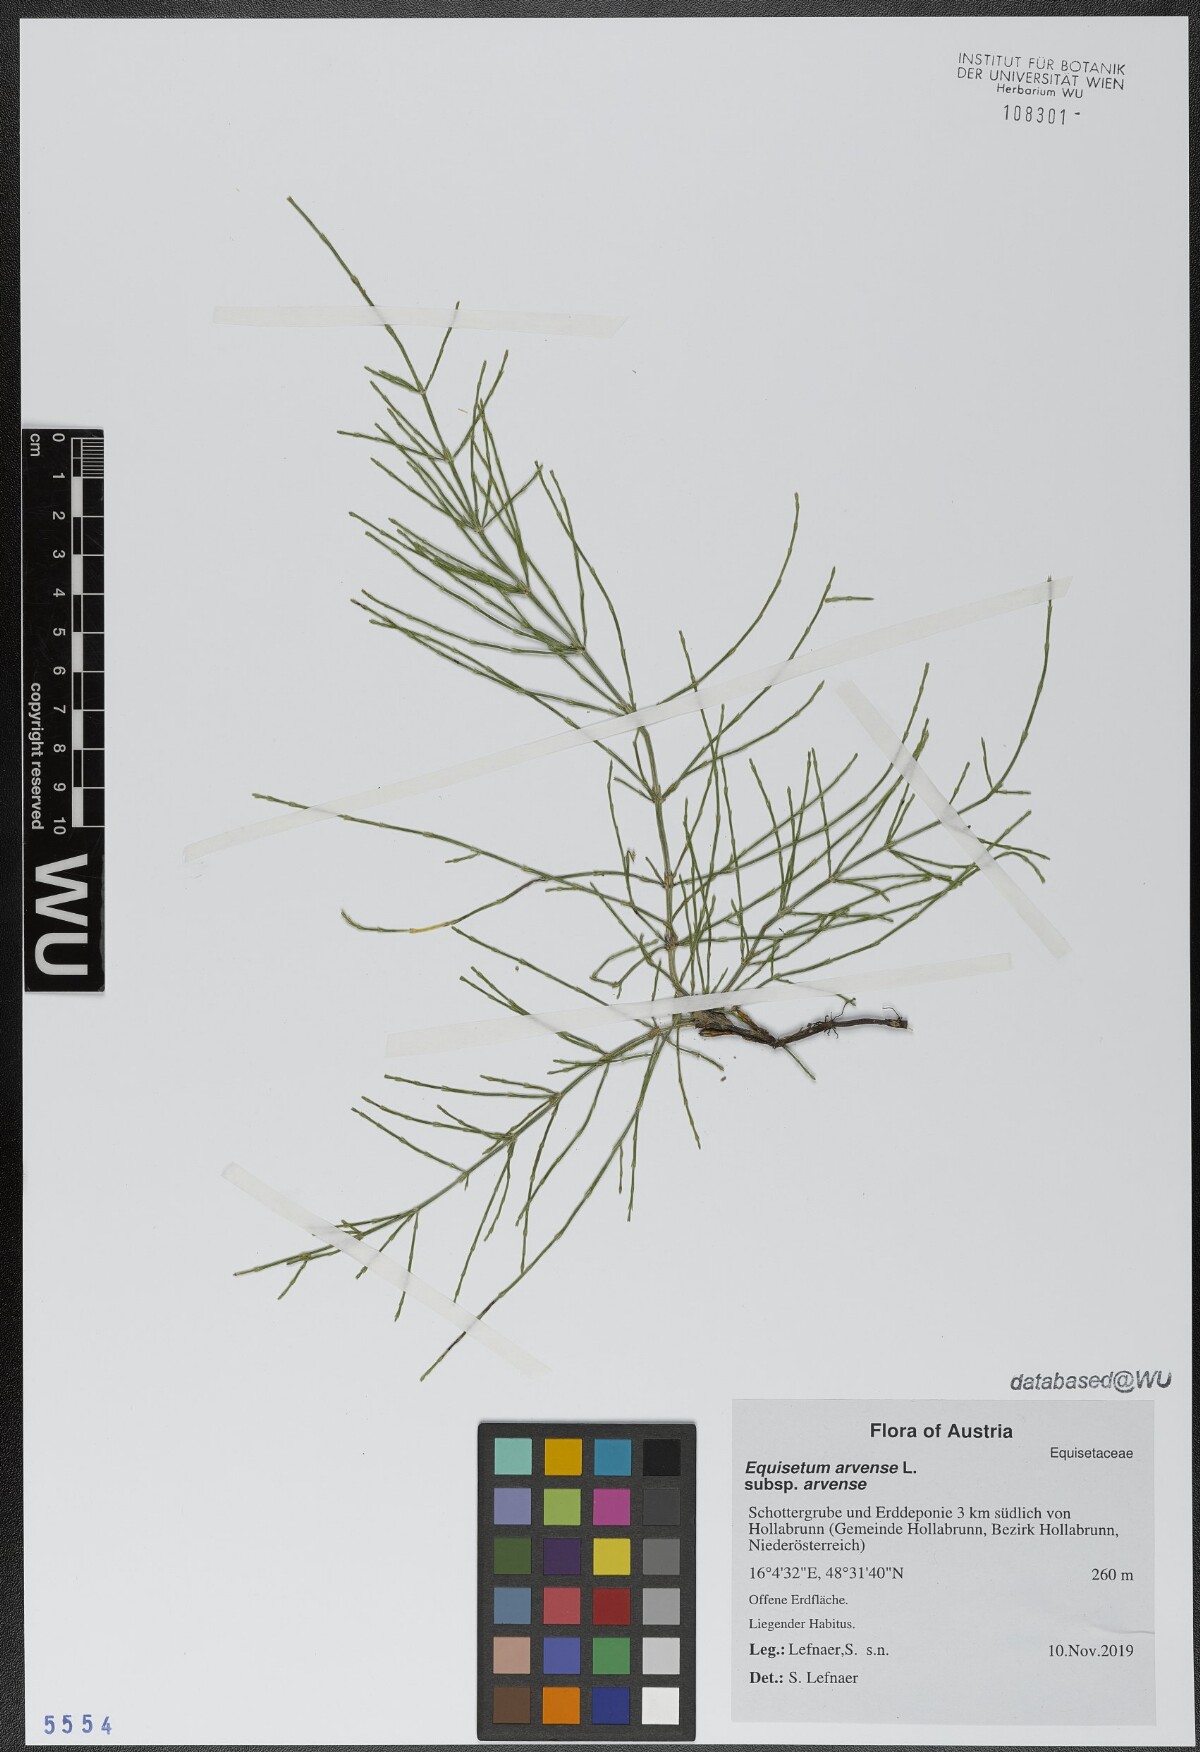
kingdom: Plantae
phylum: Tracheophyta
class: Polypodiopsida
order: Equisetales
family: Equisetaceae
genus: Equisetum
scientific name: Equisetum arvense
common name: Field horsetail
